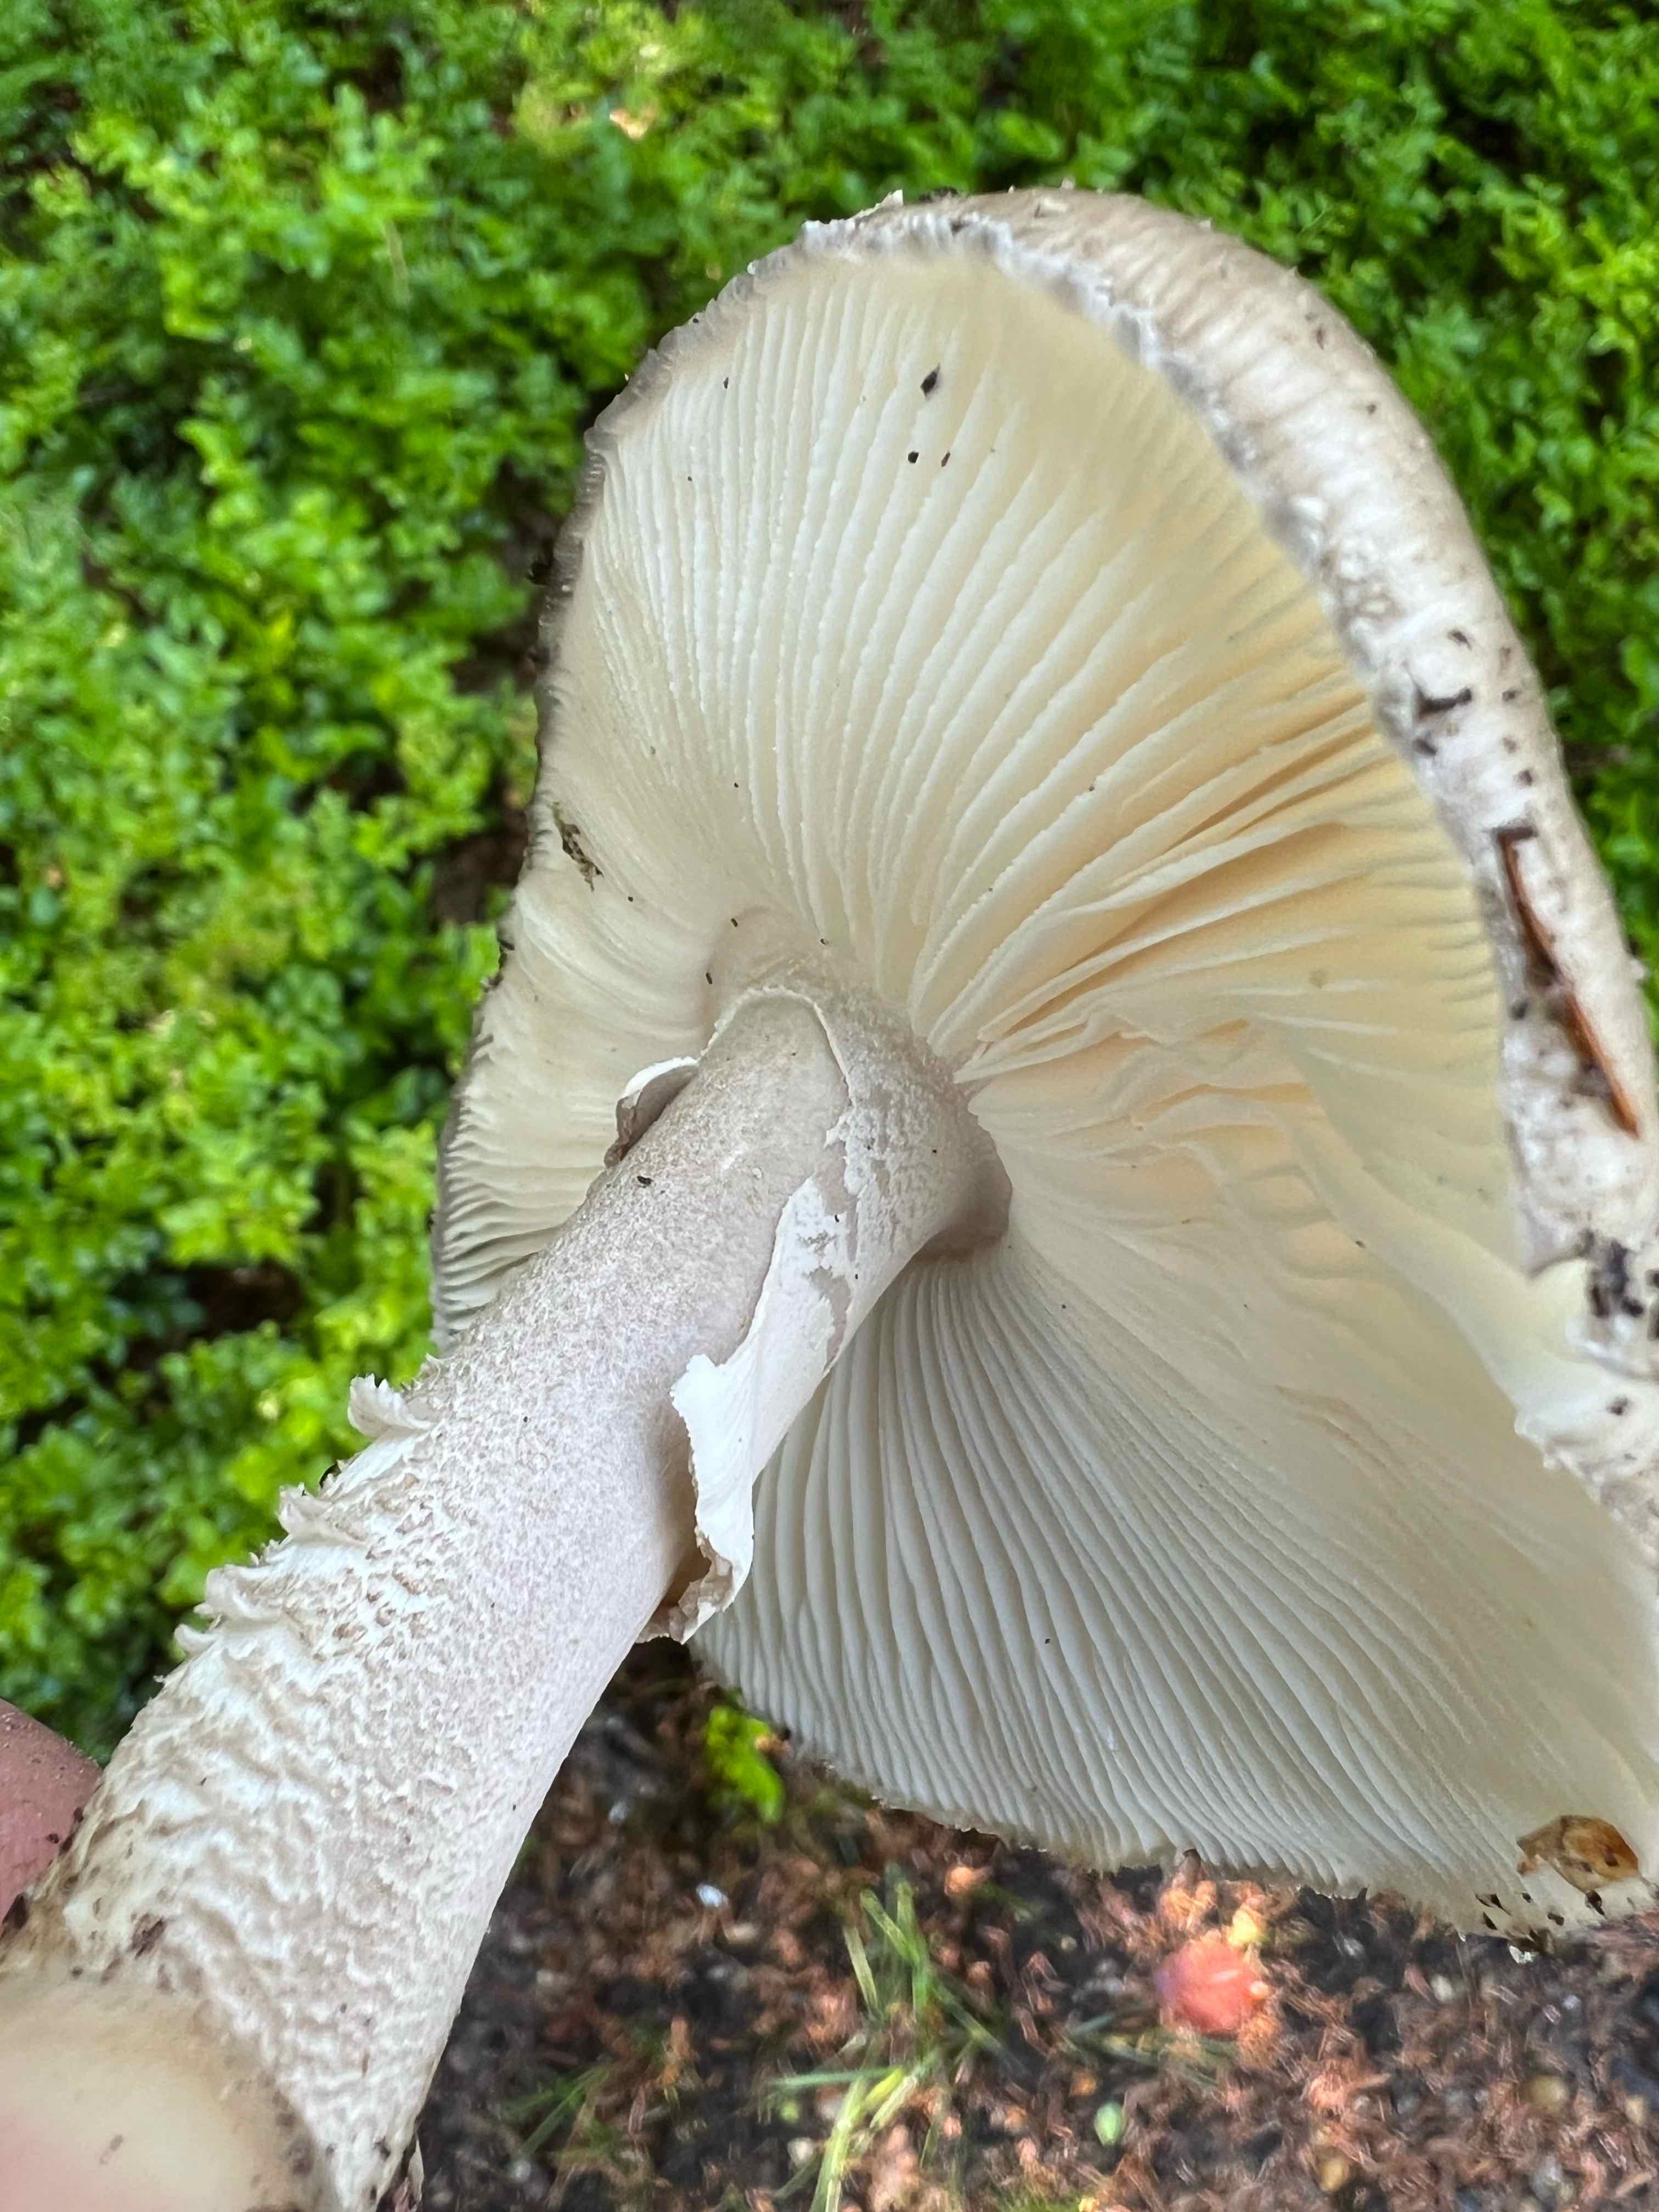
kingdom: Fungi
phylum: Basidiomycota
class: Agaricomycetes
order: Agaricales
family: Amanitaceae
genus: Amanita
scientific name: Amanita
